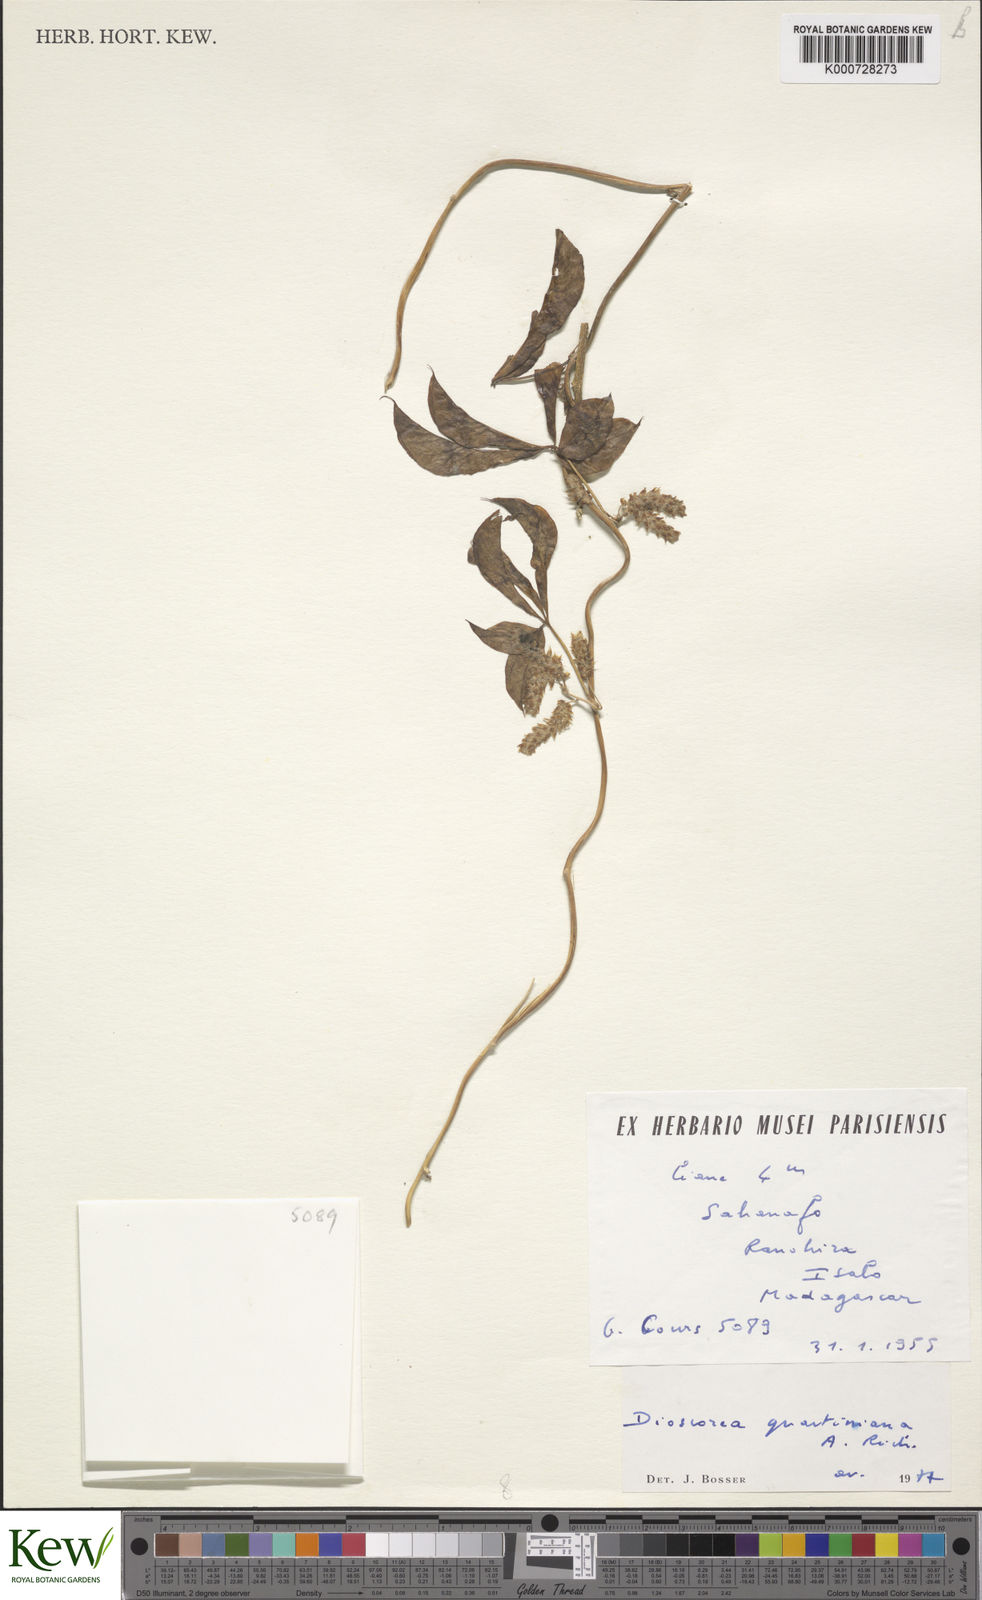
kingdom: Plantae
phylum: Tracheophyta
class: Liliopsida
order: Dioscoreales
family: Dioscoreaceae
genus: Dioscorea
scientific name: Dioscorea quartiniana
